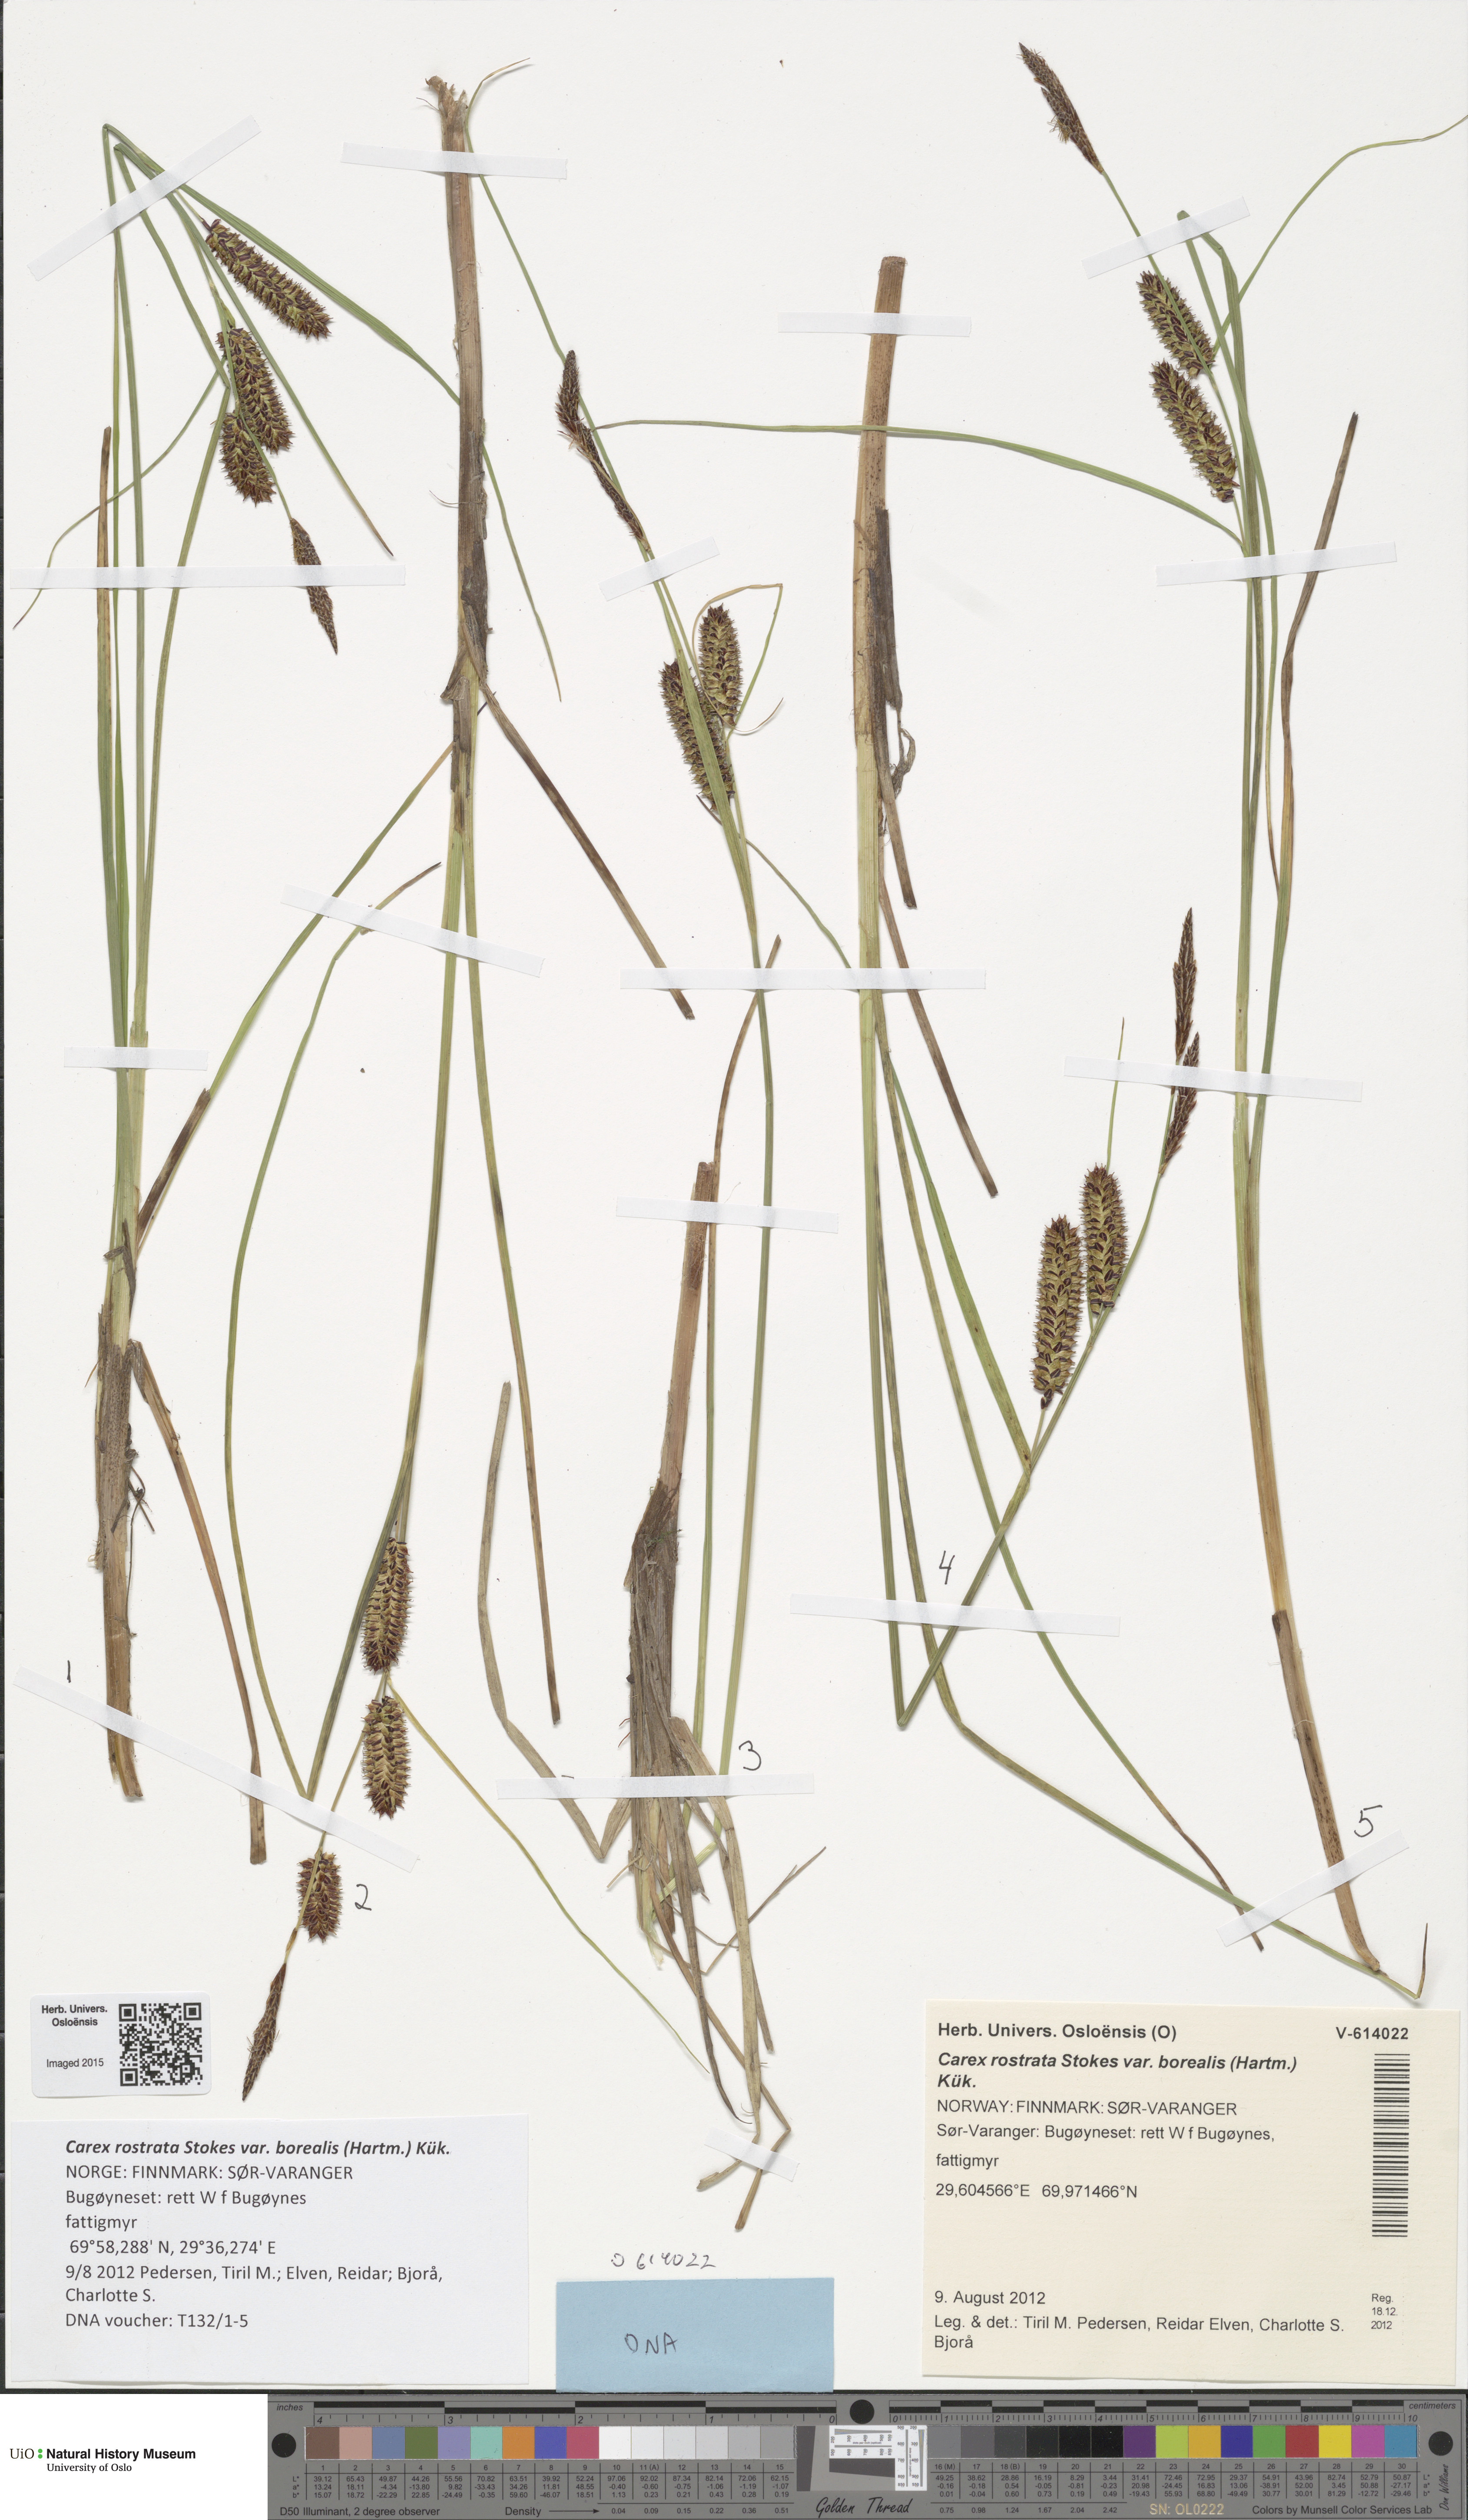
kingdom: Plantae
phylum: Tracheophyta
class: Liliopsida
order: Poales
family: Cyperaceae
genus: Carex
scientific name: Carex saamica
